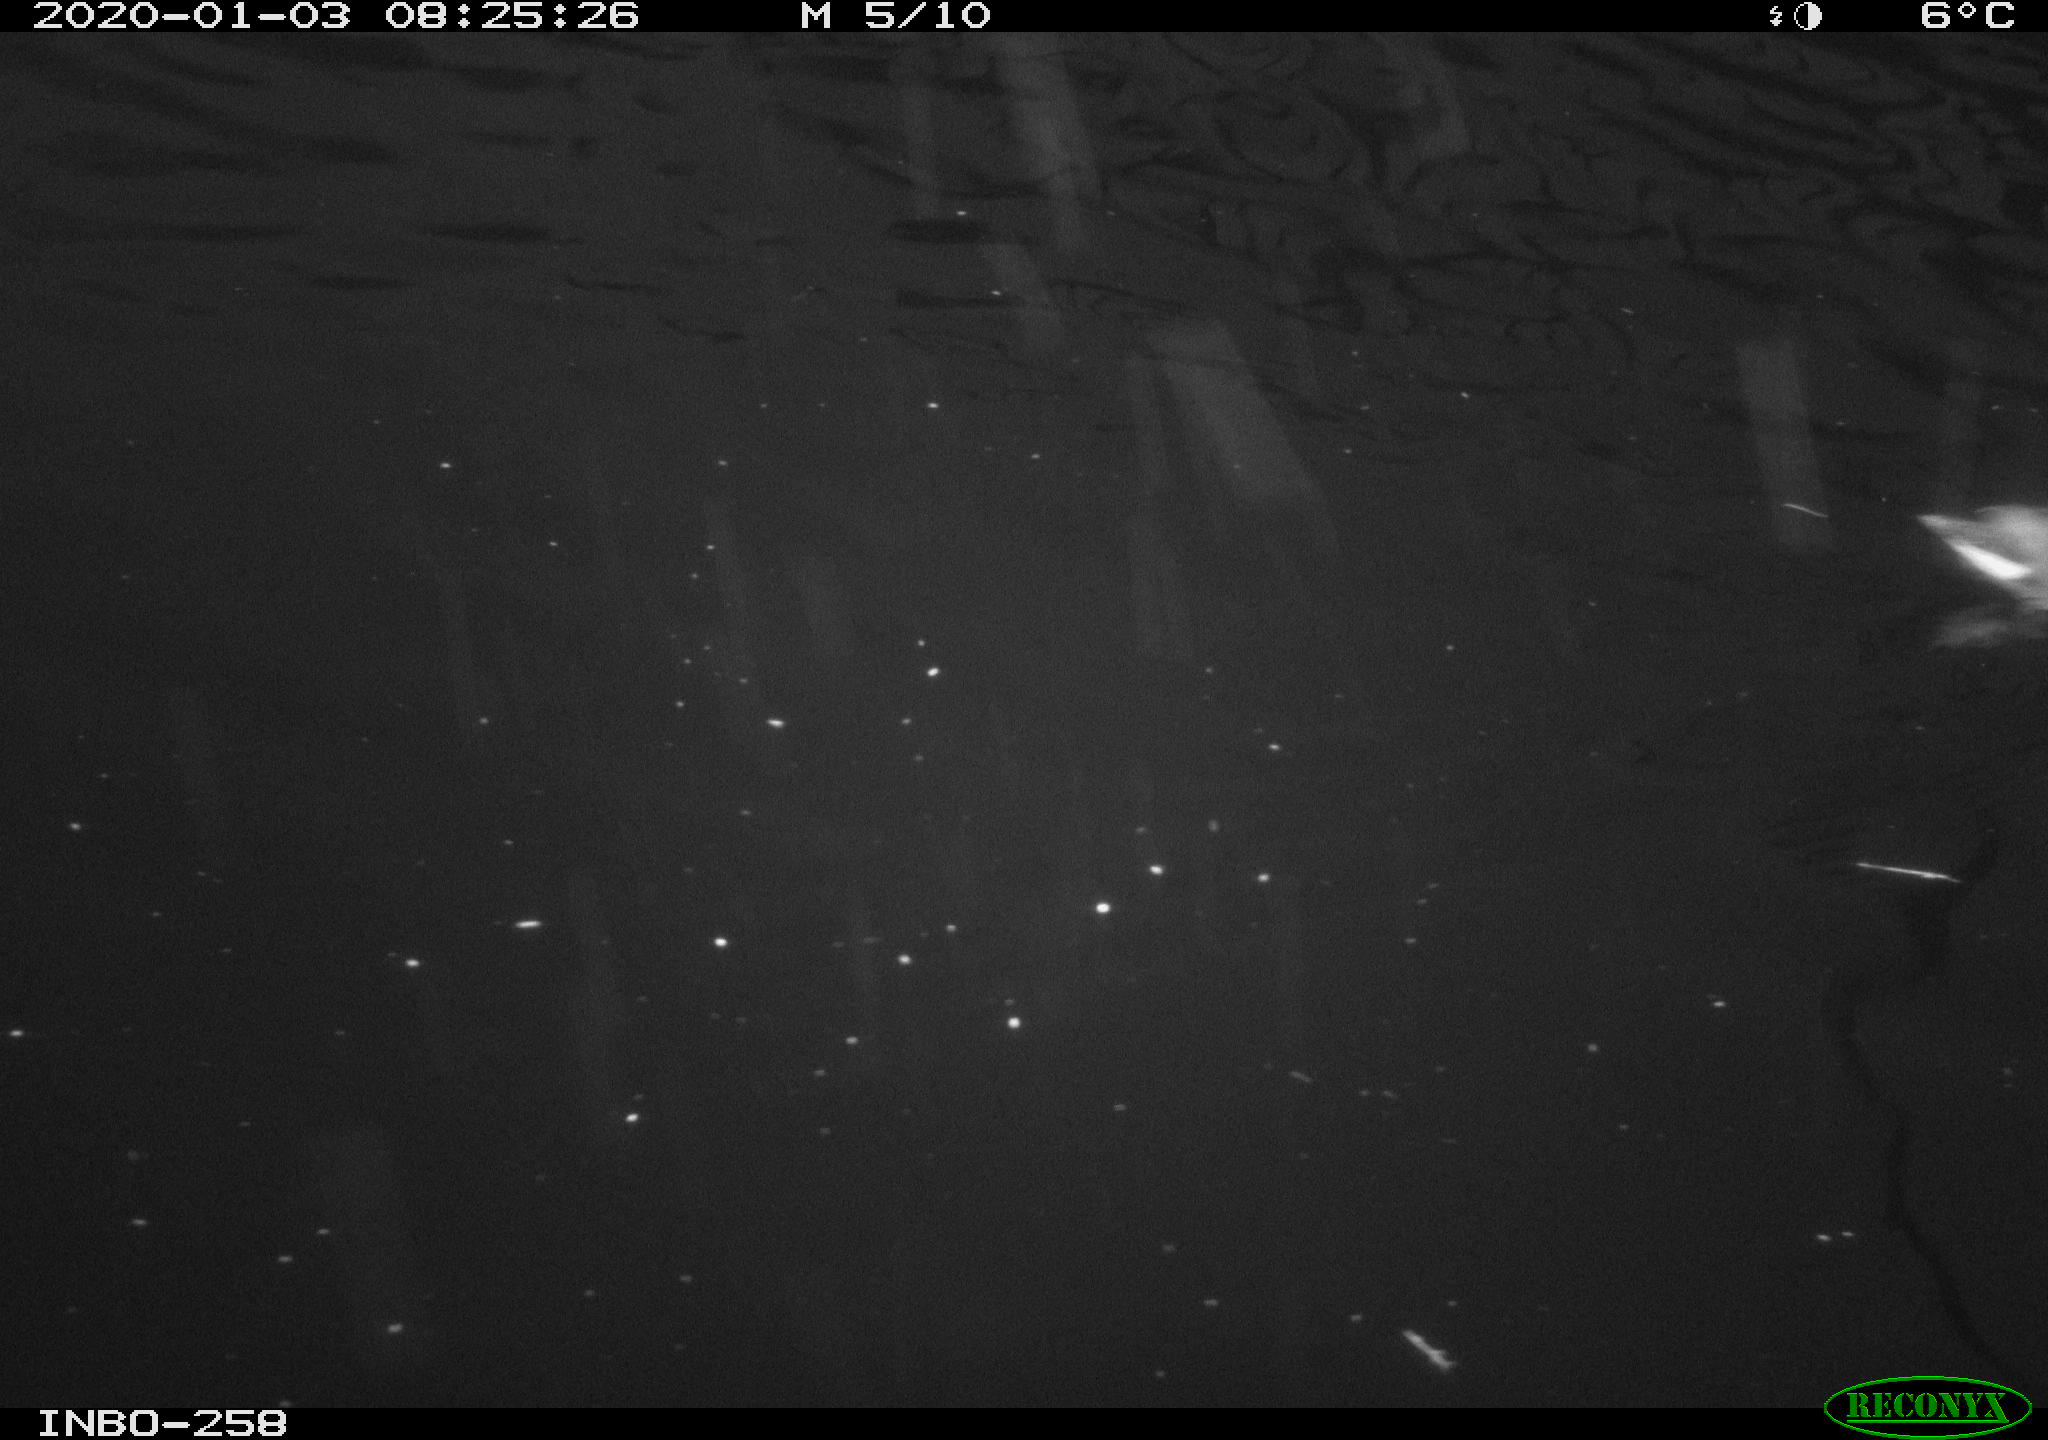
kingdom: Animalia
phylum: Chordata
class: Aves
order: Gruiformes
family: Rallidae
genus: Gallinula
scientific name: Gallinula chloropus
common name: Common moorhen
